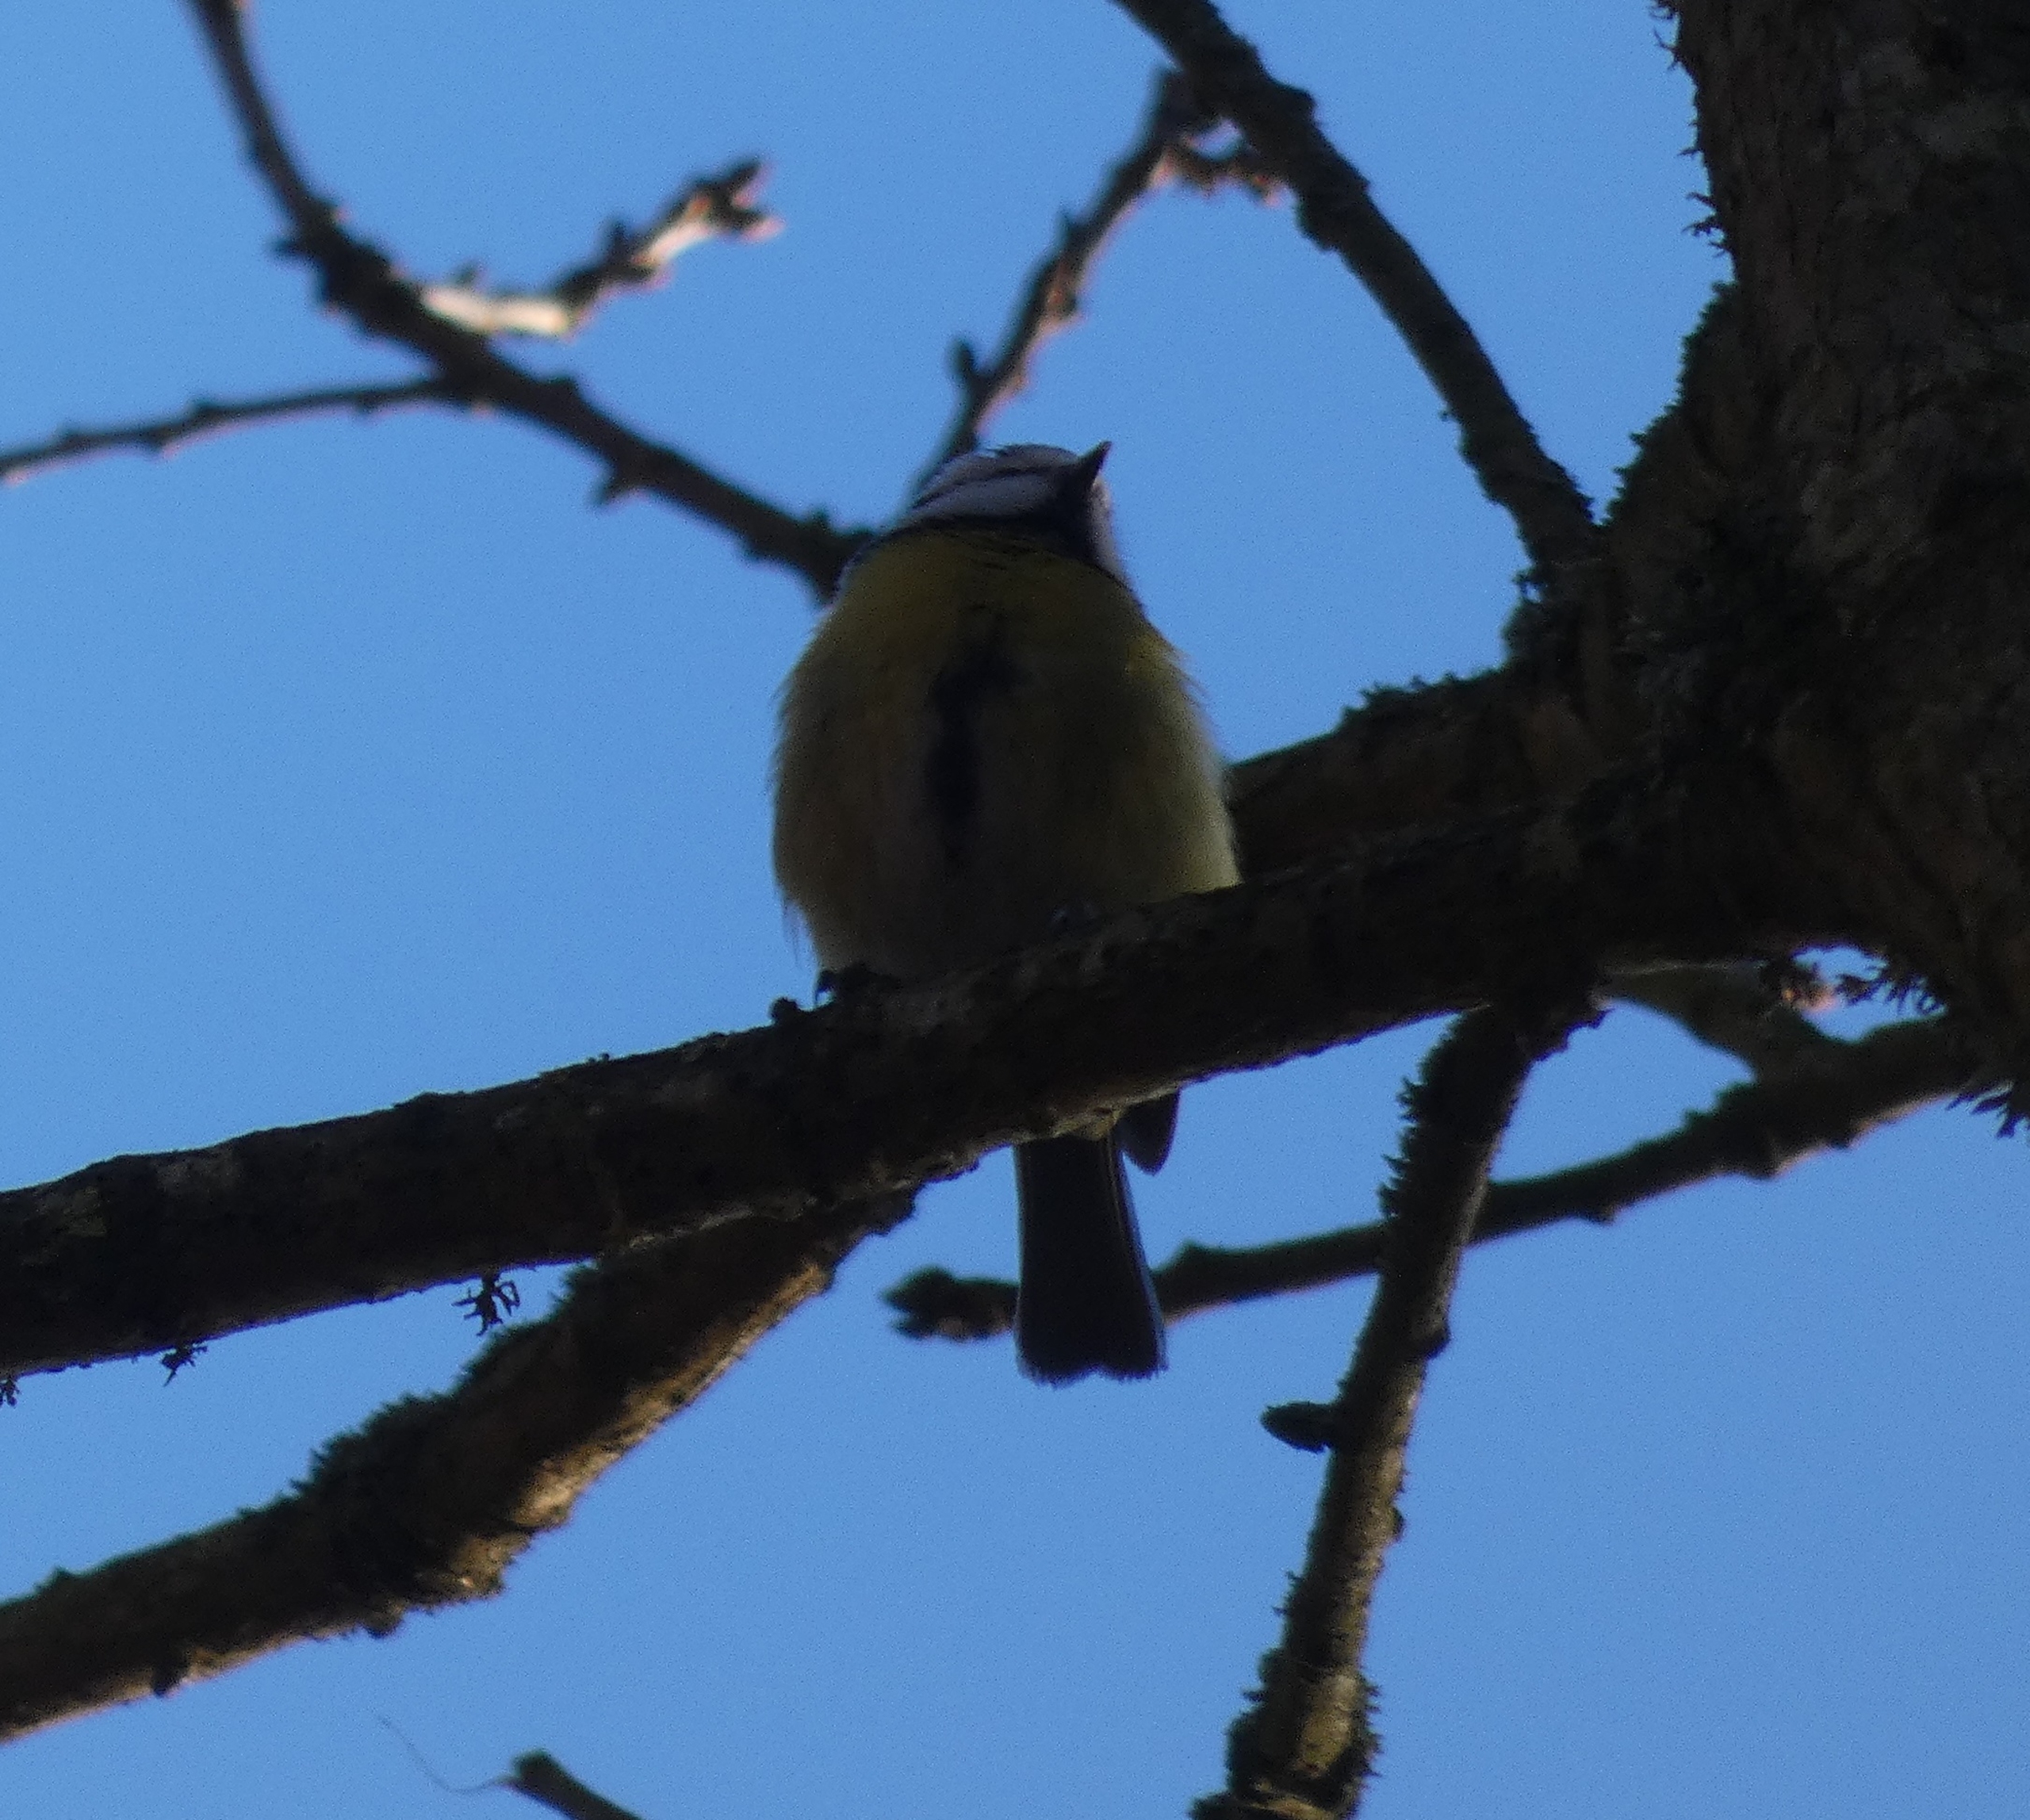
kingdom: Animalia
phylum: Chordata
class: Aves
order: Passeriformes
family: Paridae
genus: Cyanistes
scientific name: Cyanistes caeruleus
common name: Blåmejse
